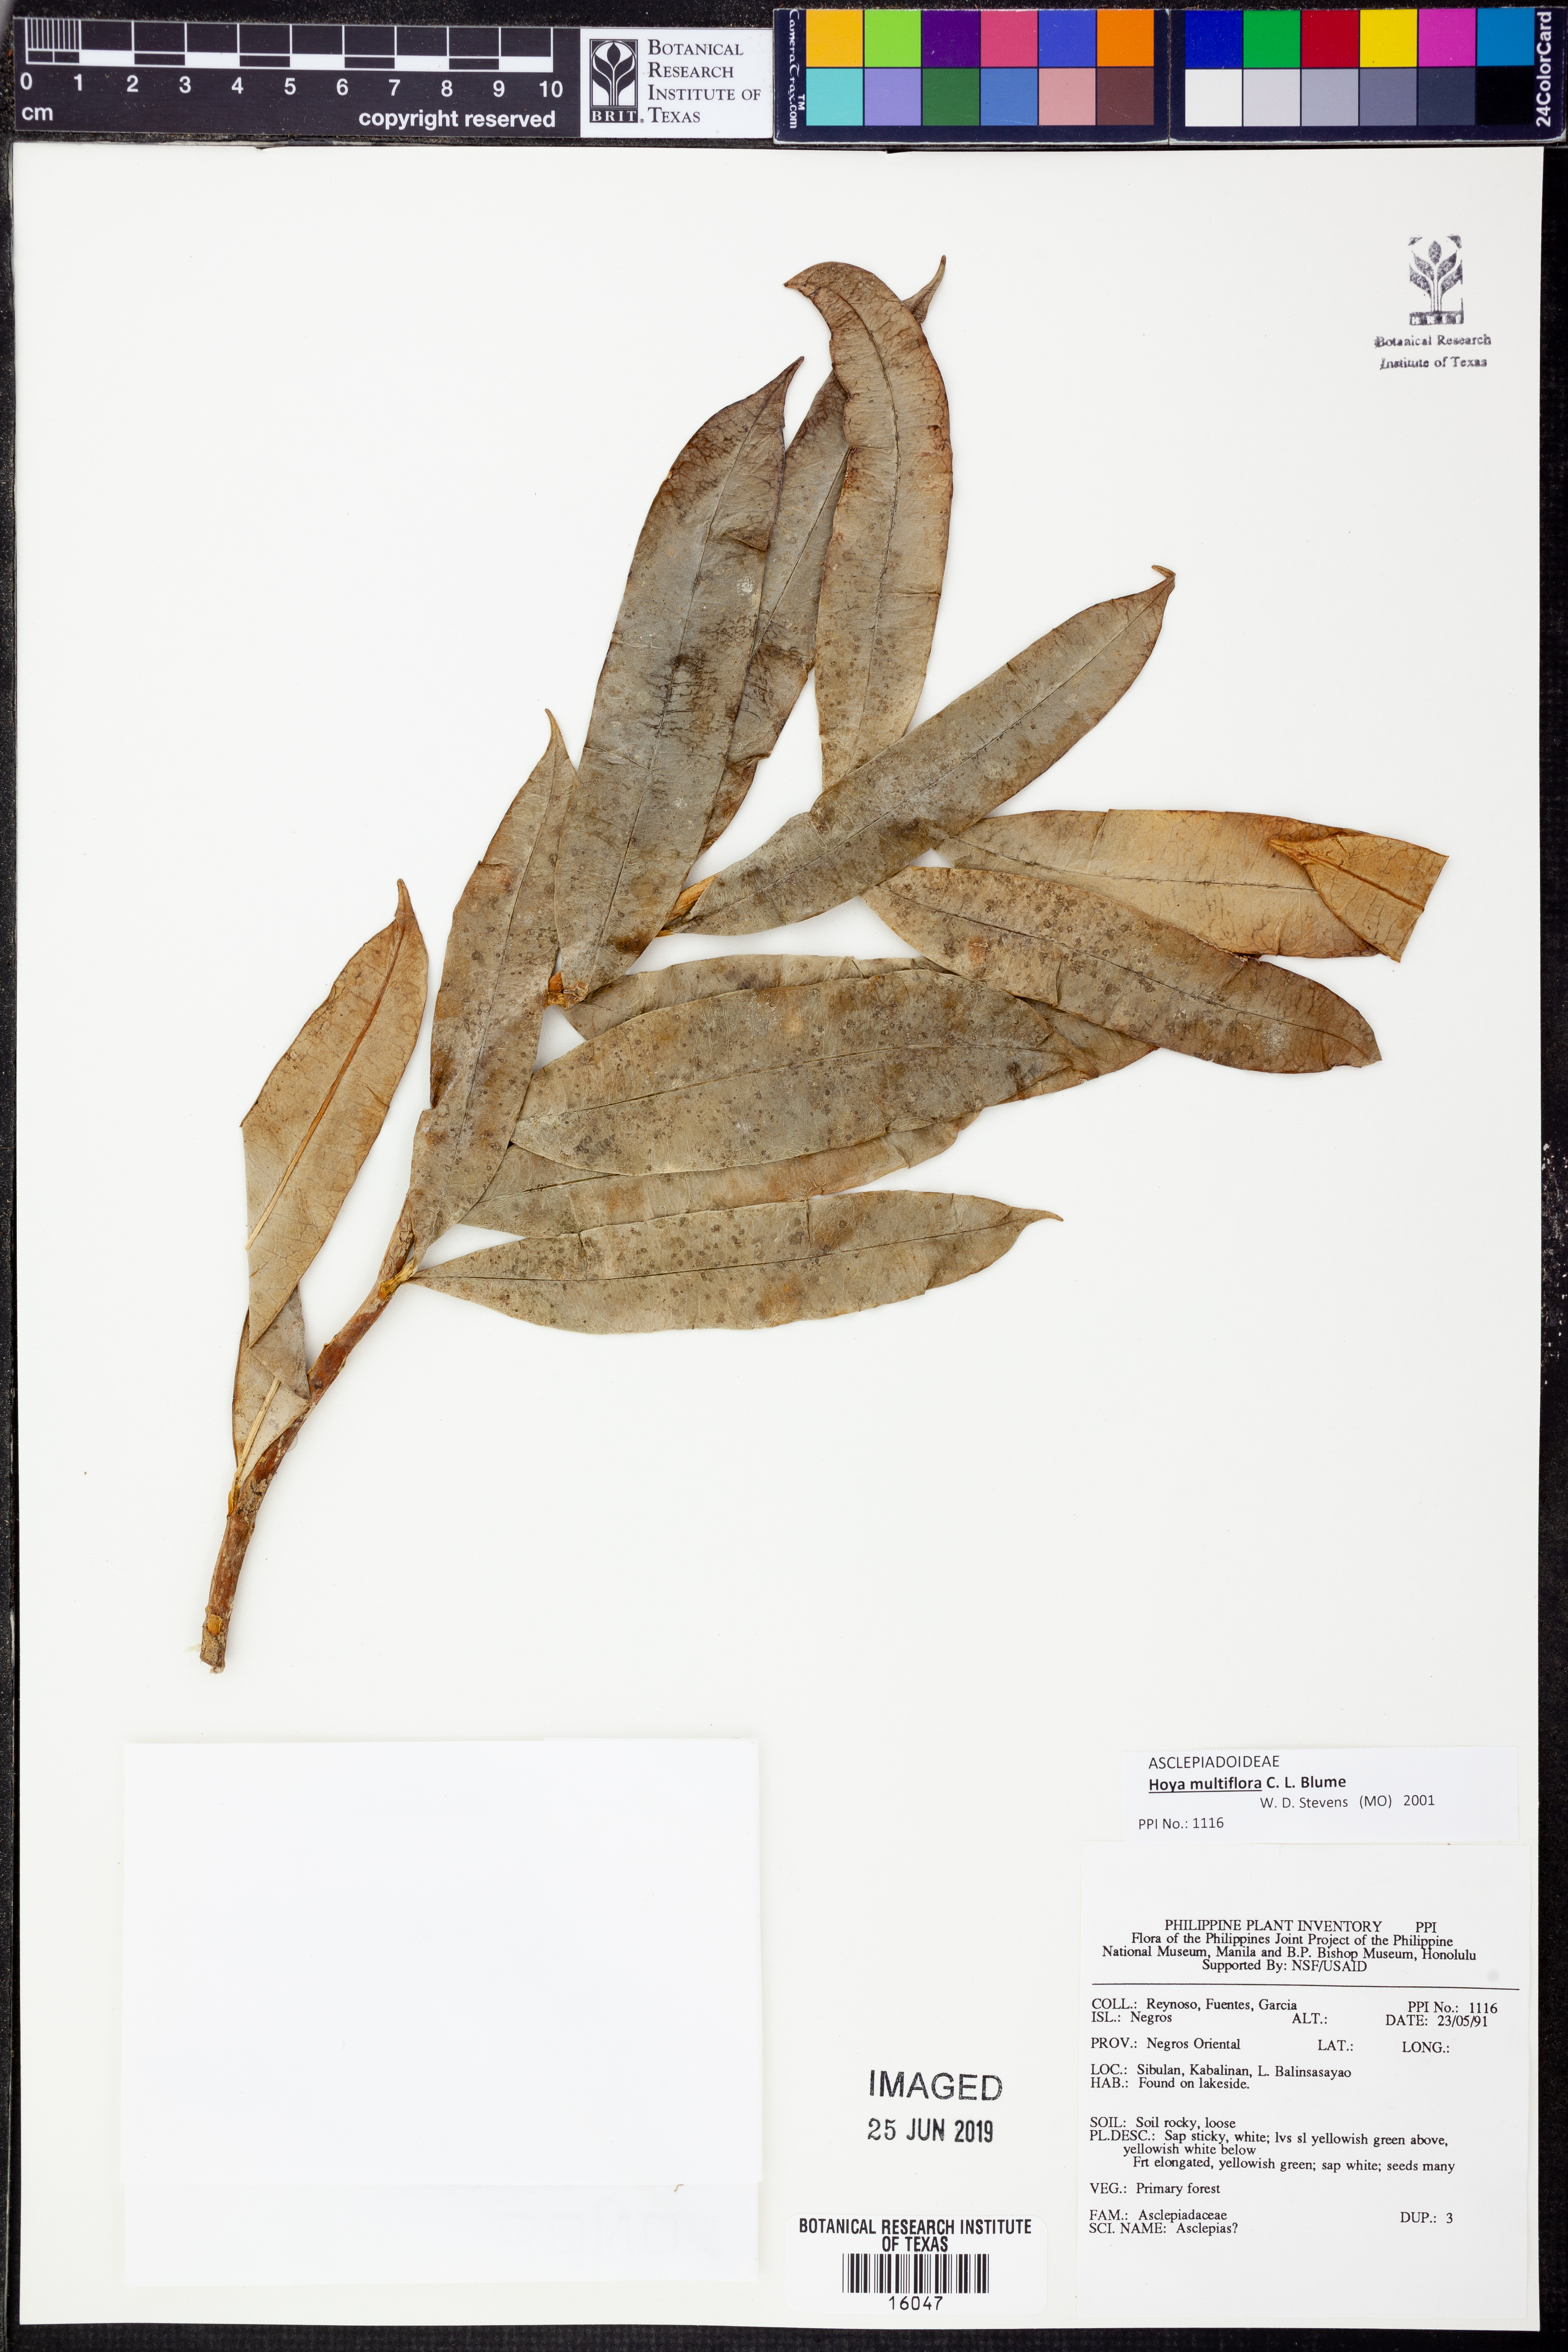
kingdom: Plantae
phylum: Tracheophyta
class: Magnoliopsida
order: Gentianales
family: Apocynaceae
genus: Hoya
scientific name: Hoya multiflora
